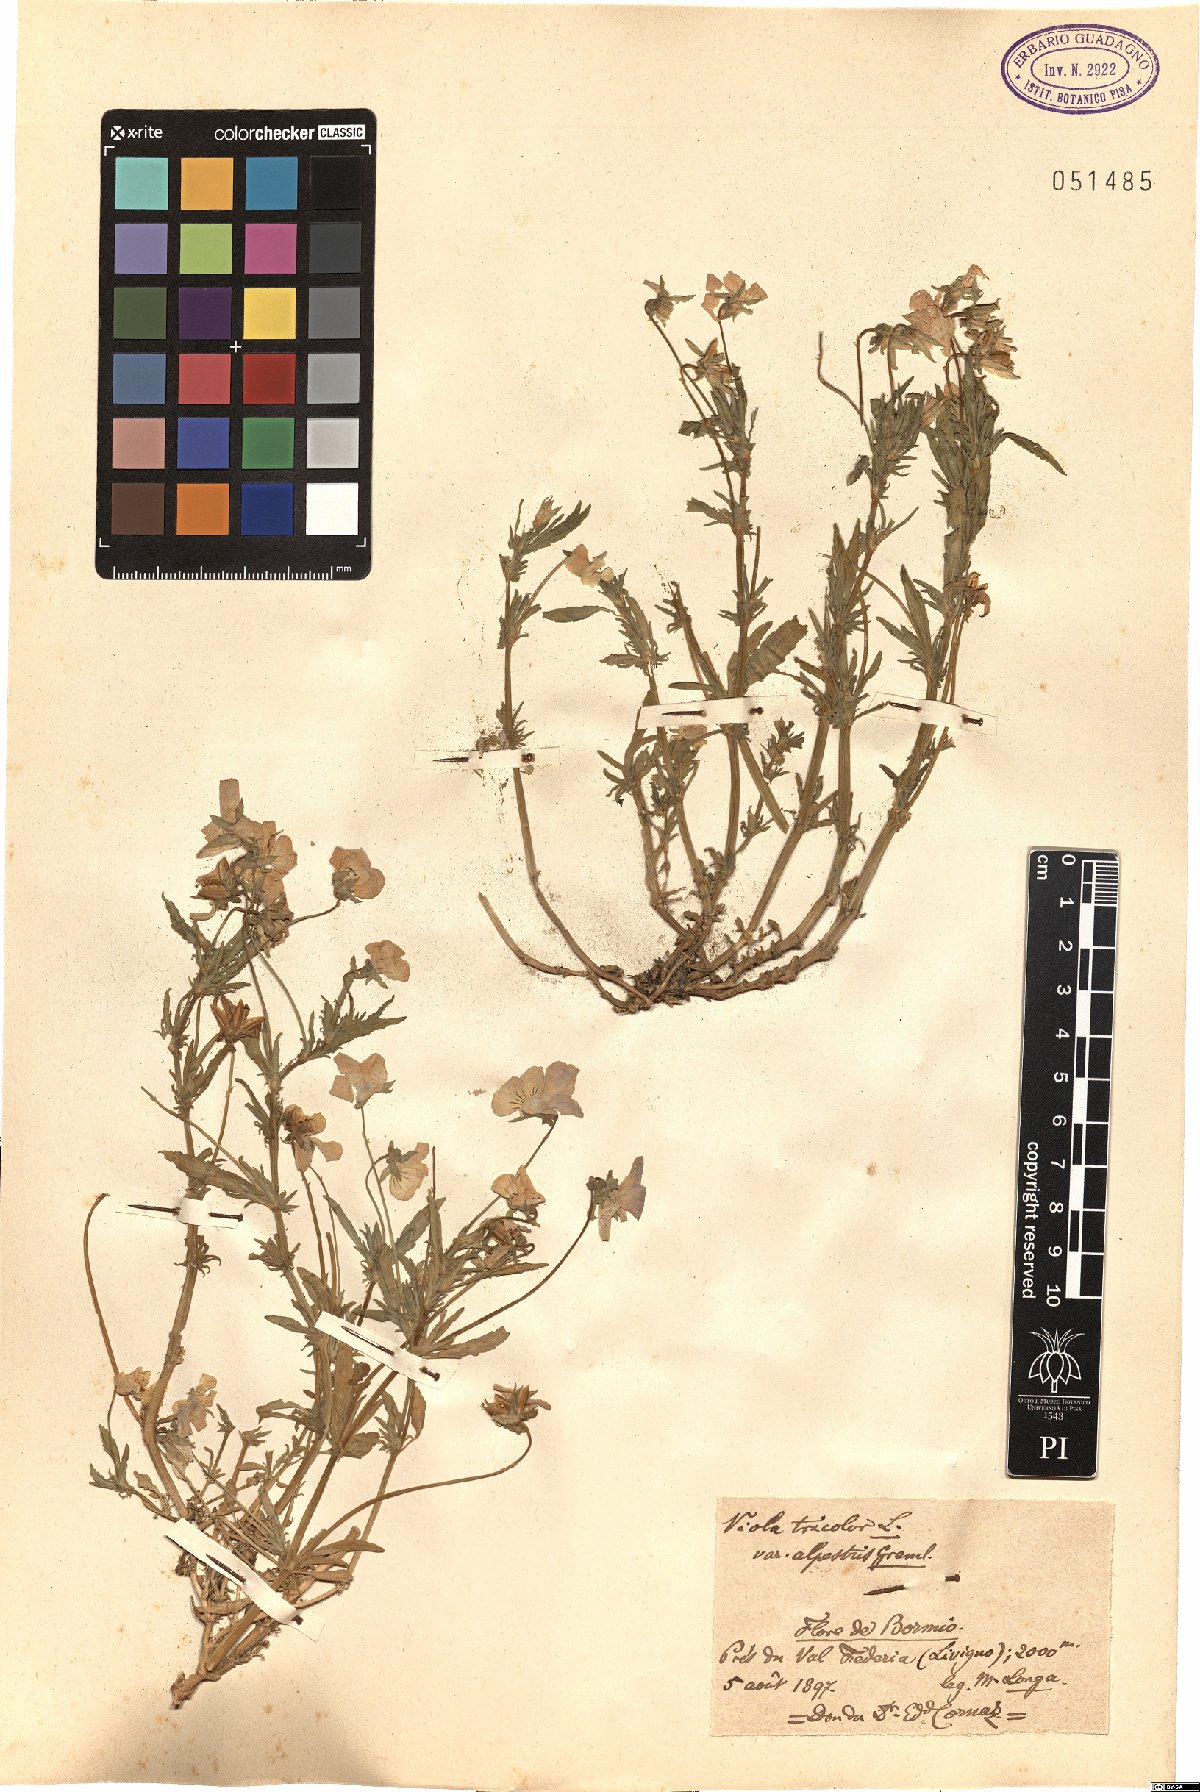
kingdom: Plantae
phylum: Tracheophyta
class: Magnoliopsida
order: Malpighiales
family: Violaceae
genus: Viola
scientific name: Viola tricolor
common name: Pansy
